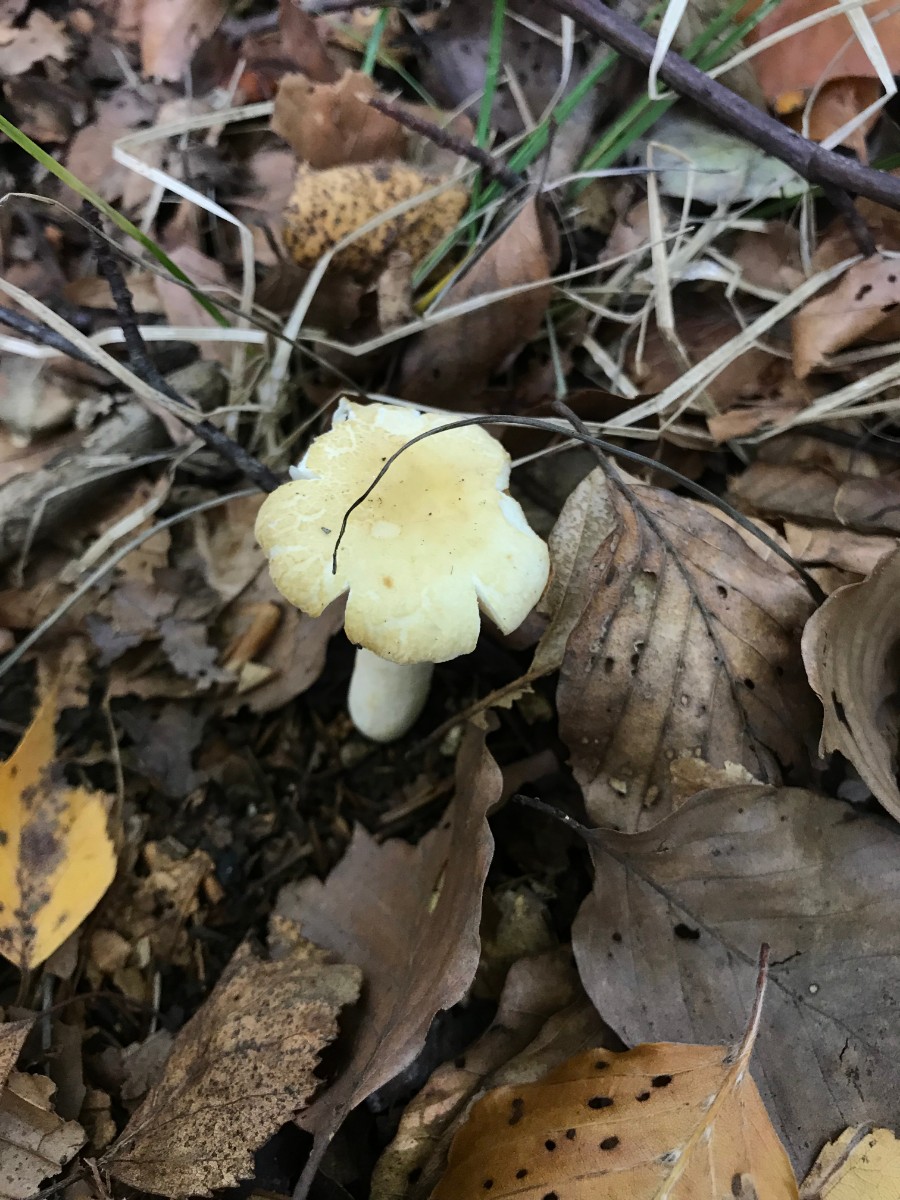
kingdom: Fungi
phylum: Basidiomycota
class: Agaricomycetes
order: Russulales
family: Russulaceae
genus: Russula
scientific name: Russula fellea
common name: galde-skørhat
